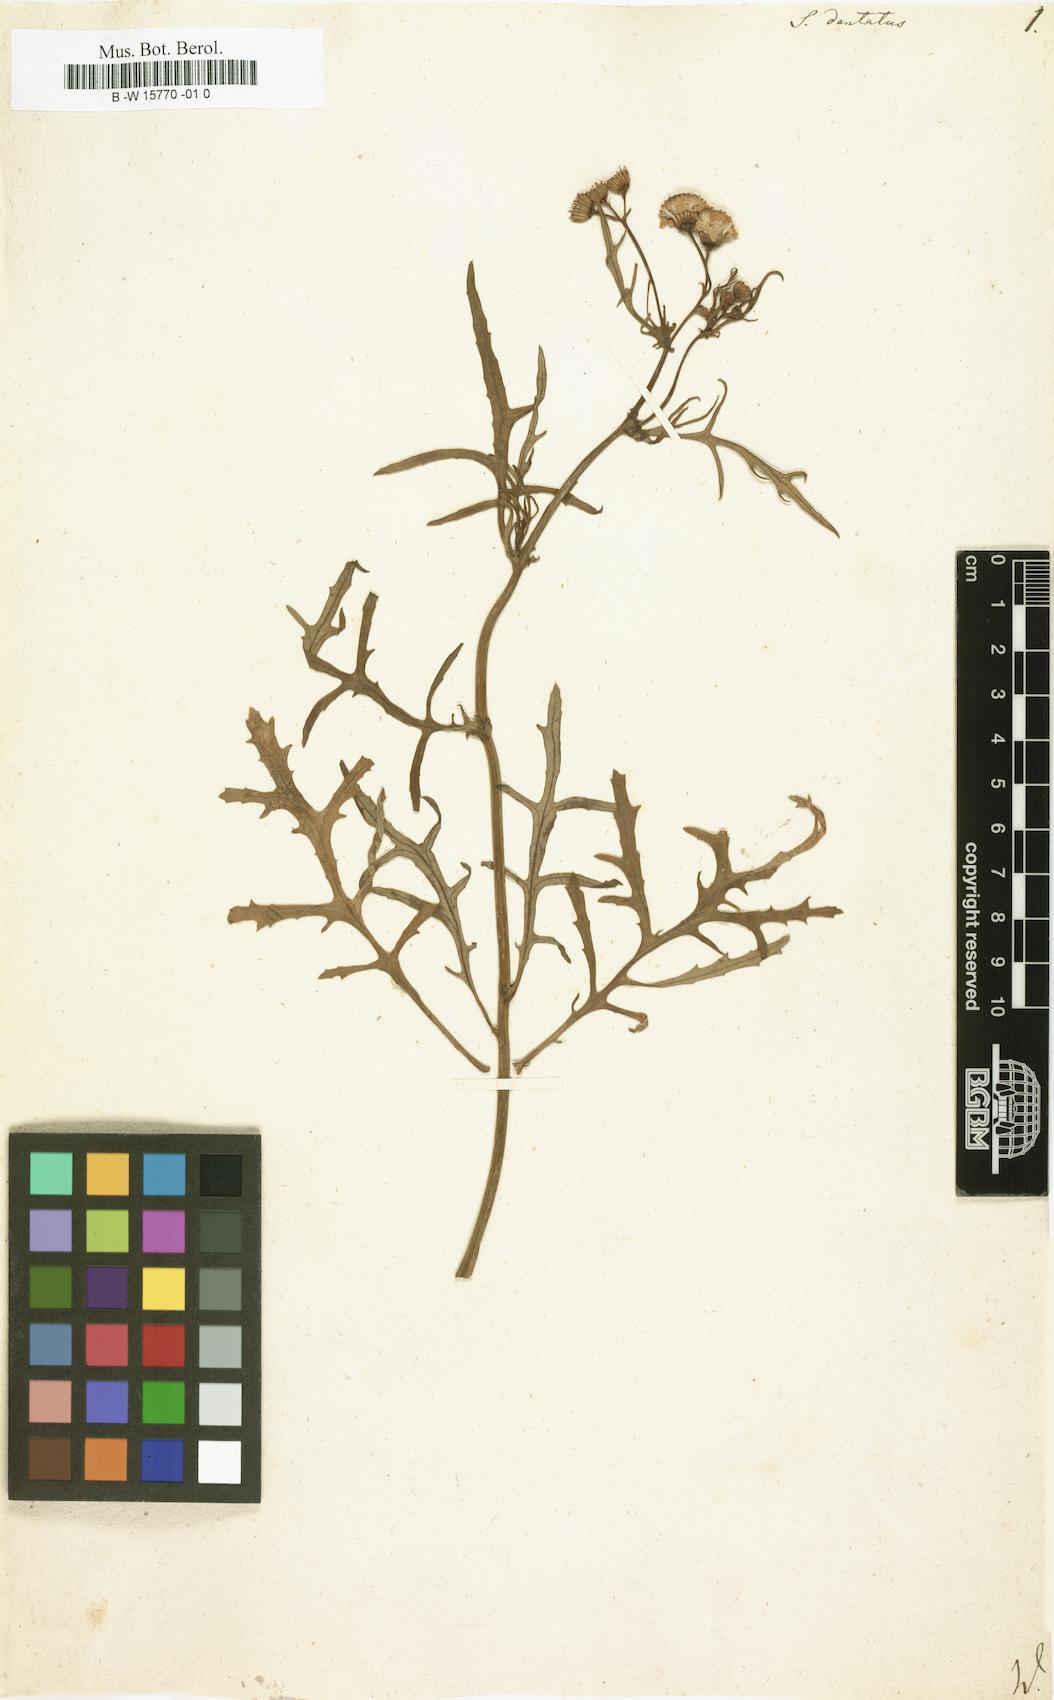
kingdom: Plantae
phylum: Tracheophyta
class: Magnoliopsida
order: Asterales
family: Asteraceae
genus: Senecio
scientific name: Senecio dentatus
